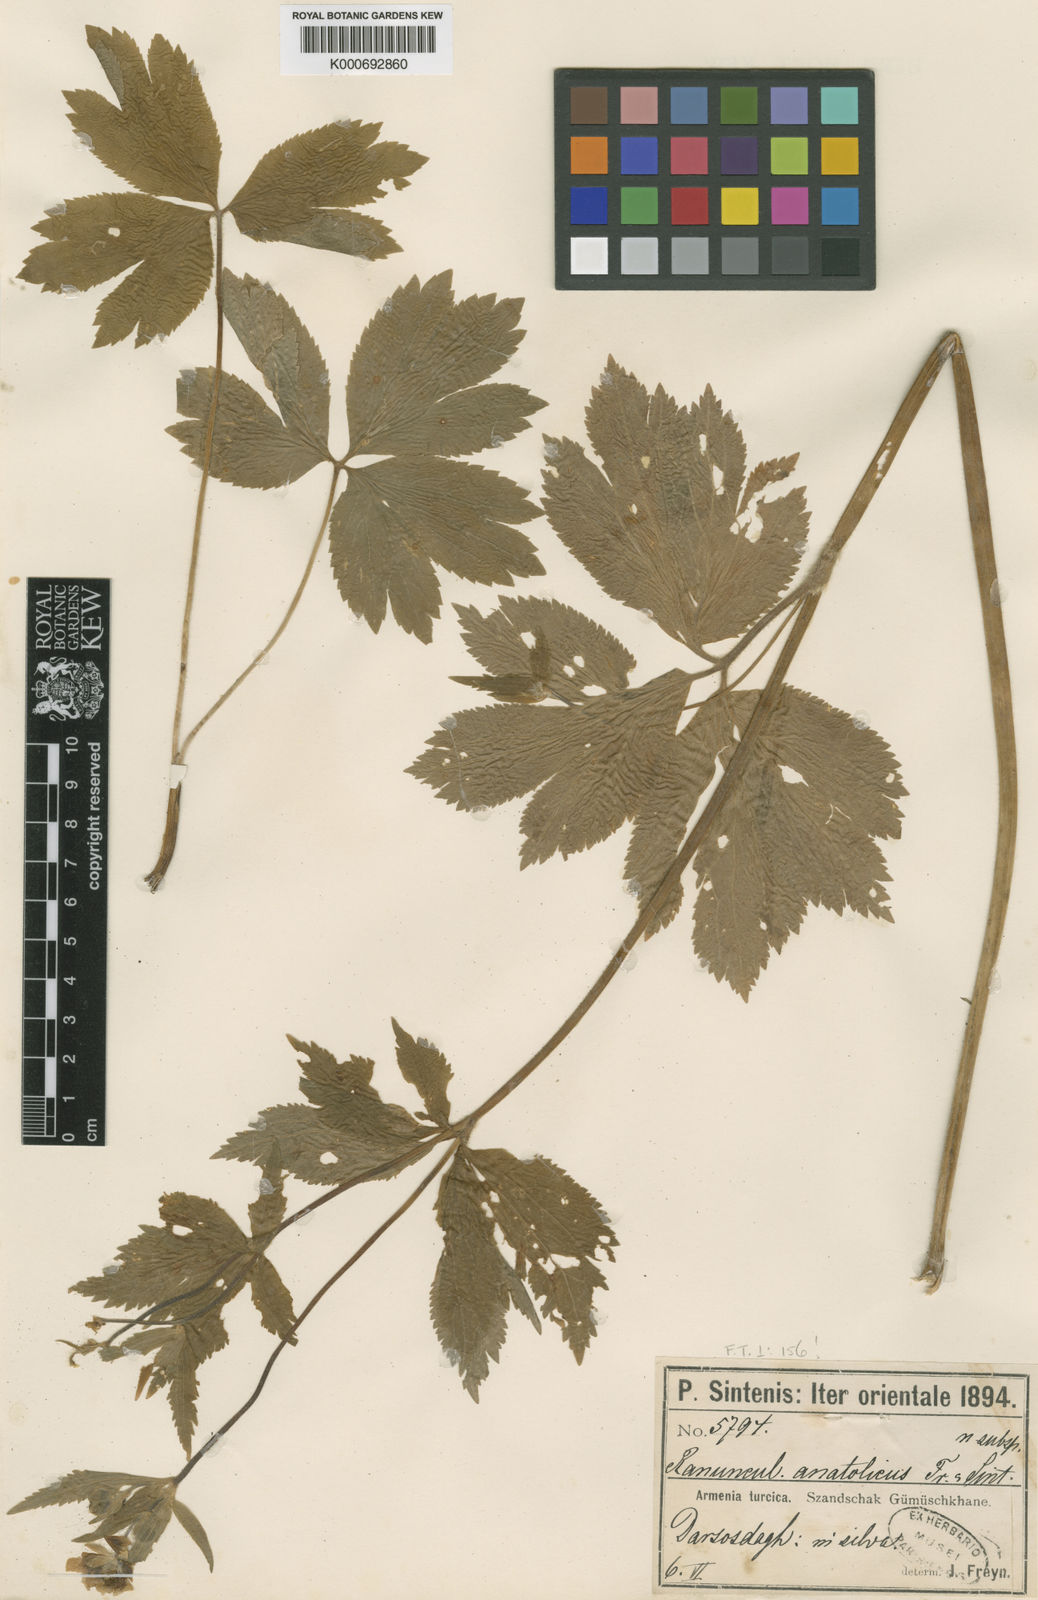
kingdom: Plantae
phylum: Tracheophyta
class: Magnoliopsida
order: Ranunculales
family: Ranunculaceae
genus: Ranunculus
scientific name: Ranunculus brutius
